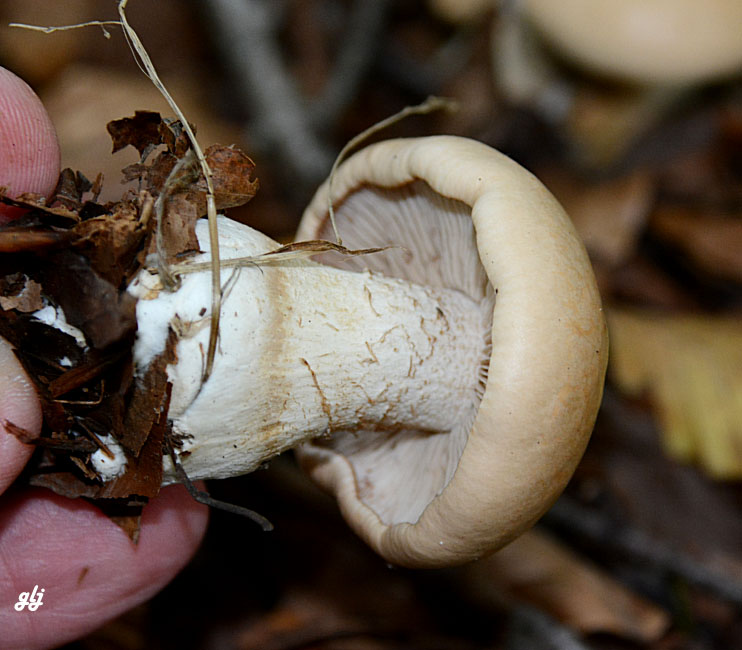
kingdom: Fungi
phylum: Basidiomycota
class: Agaricomycetes
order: Agaricales
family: Hymenogastraceae
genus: Hebeloma
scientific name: Hebeloma
